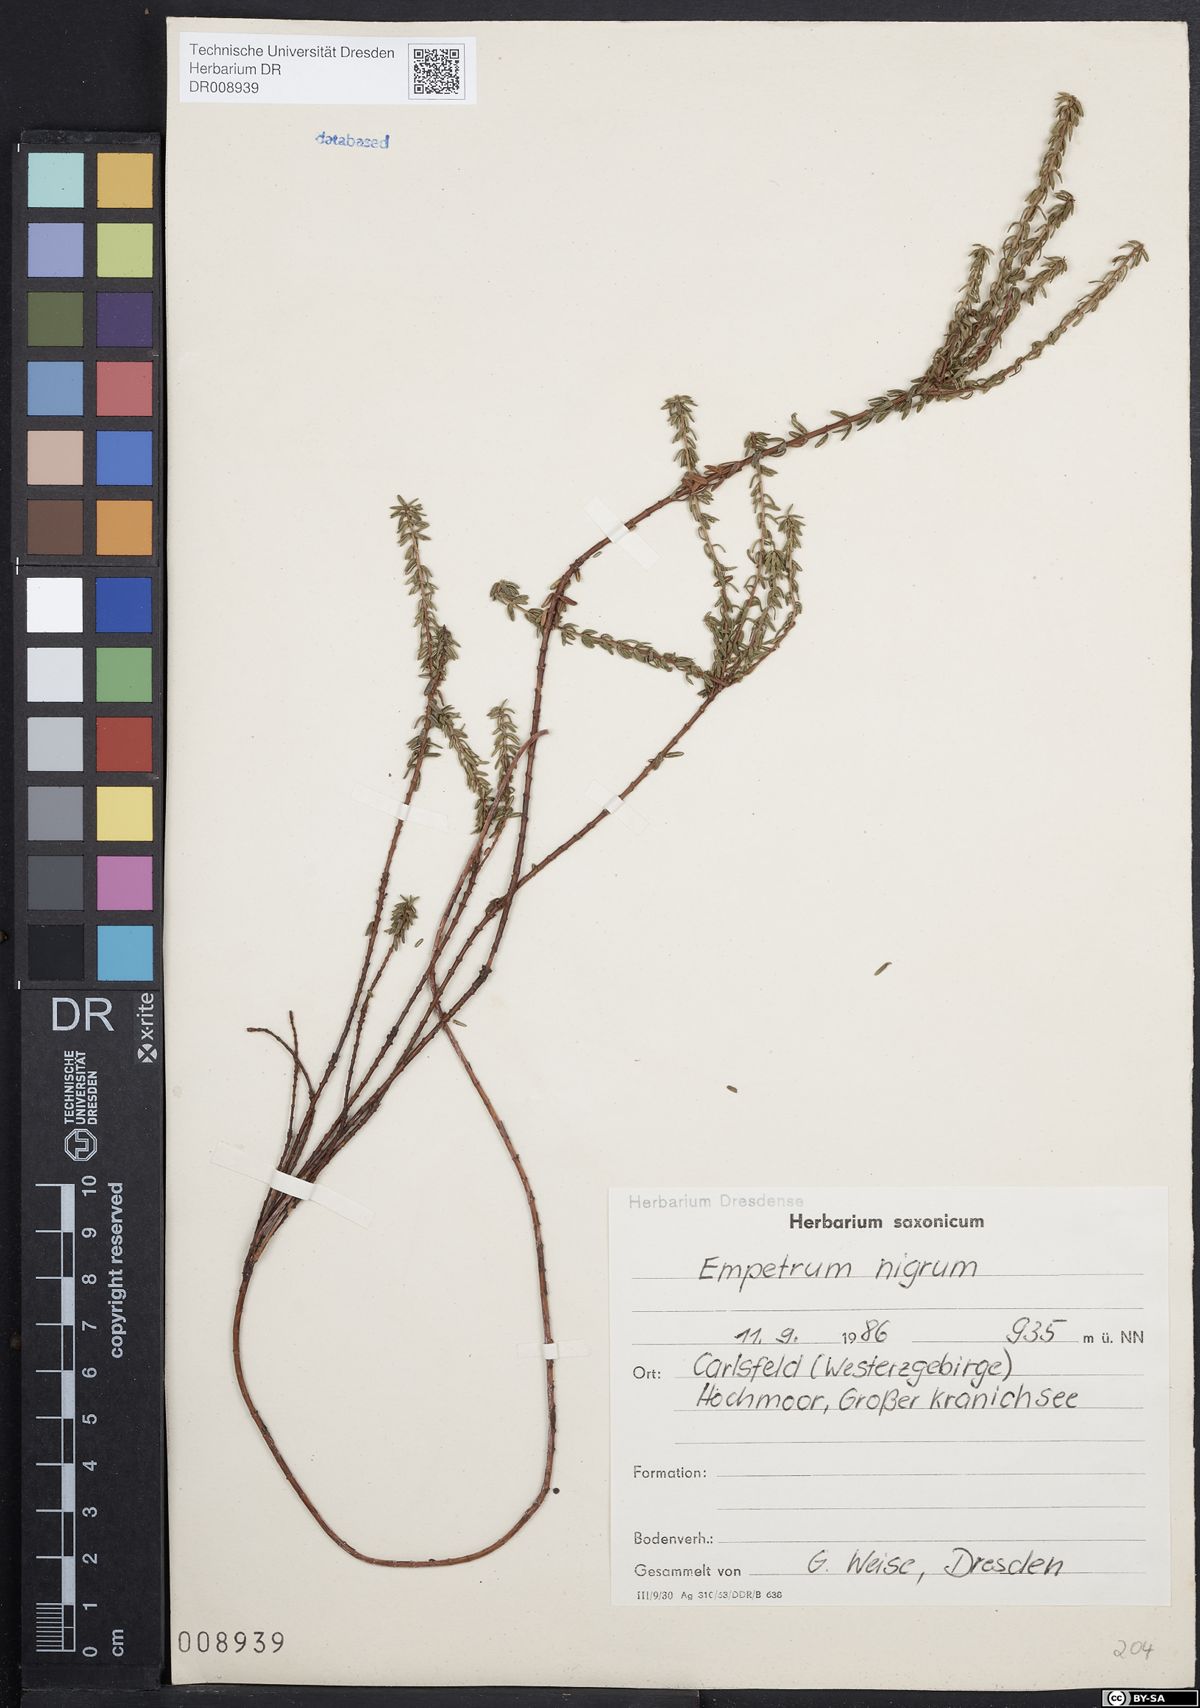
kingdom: Plantae
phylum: Tracheophyta
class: Magnoliopsida
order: Ericales
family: Ericaceae
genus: Empetrum
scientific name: Empetrum nigrum
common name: Black crowberry
